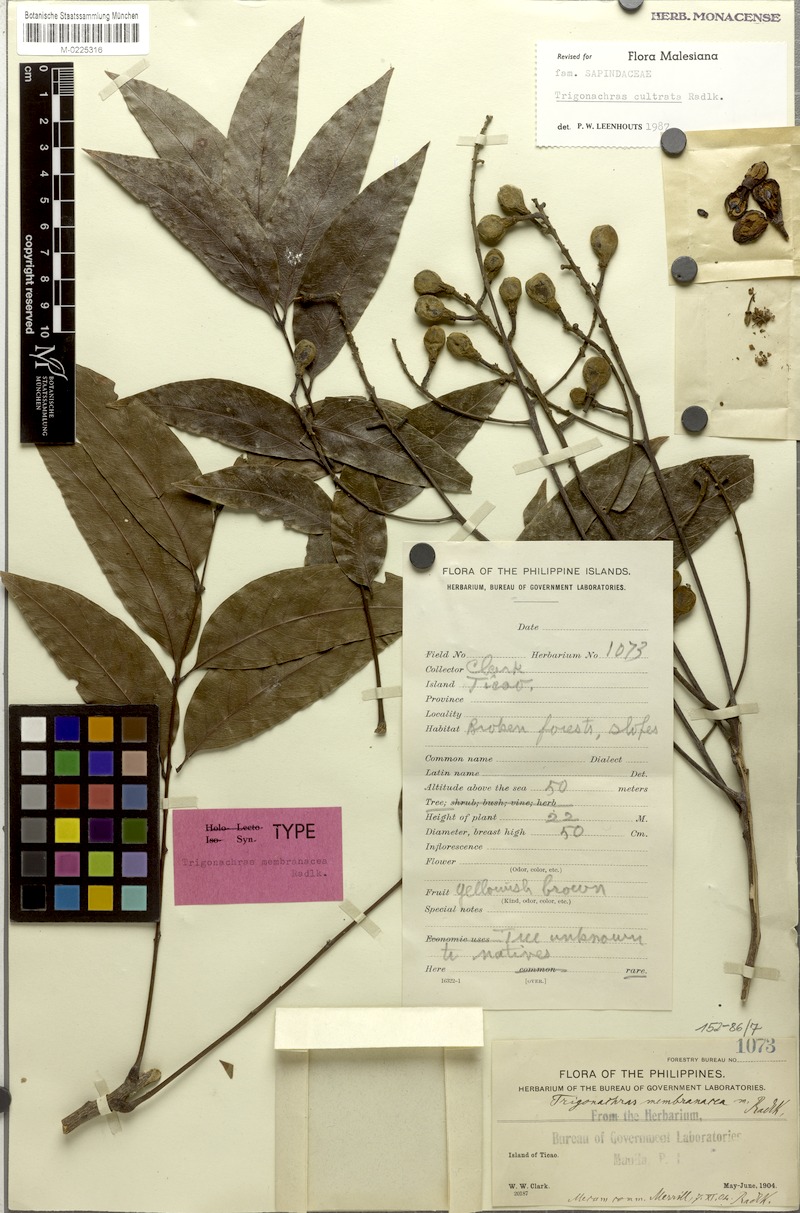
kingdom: Plantae
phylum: Tracheophyta
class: Magnoliopsida
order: Sapindales
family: Sapindaceae
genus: Trigonachras
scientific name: Trigonachras cultrata
